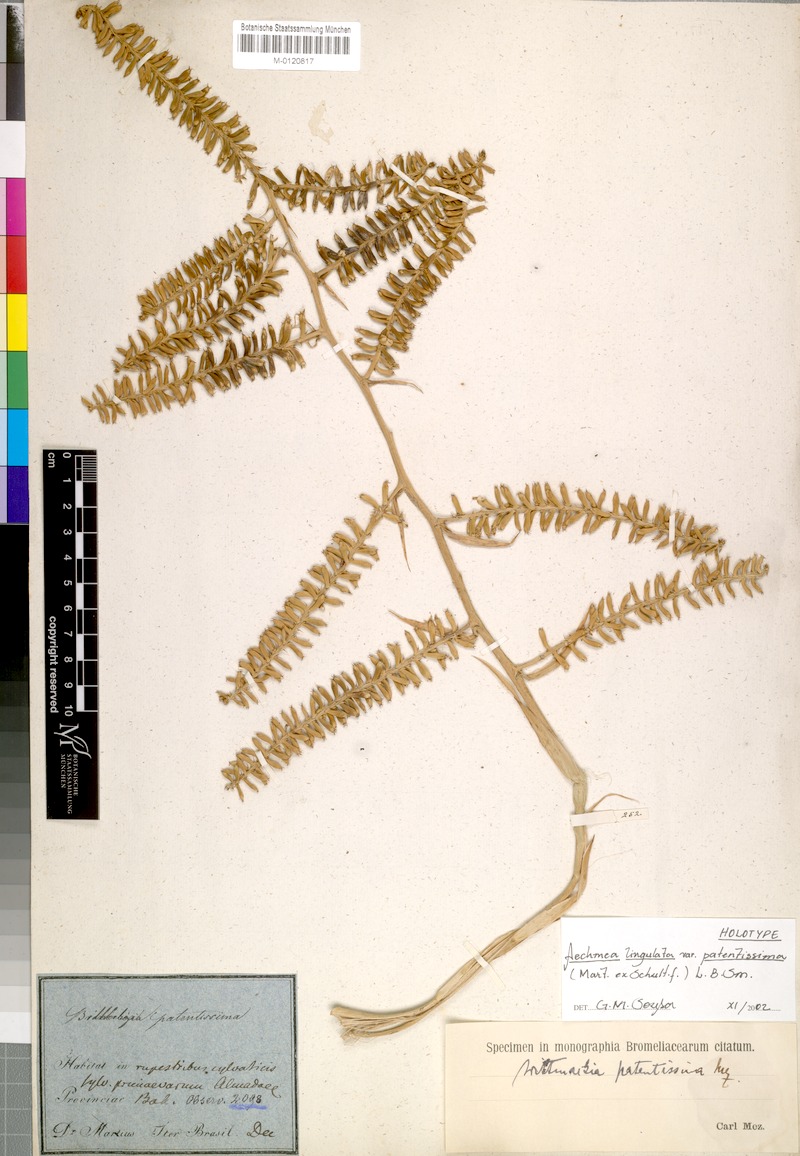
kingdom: Plantae
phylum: Tracheophyta
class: Liliopsida
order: Poales
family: Bromeliaceae
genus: Wittmackia
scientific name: Wittmackia lingulata
